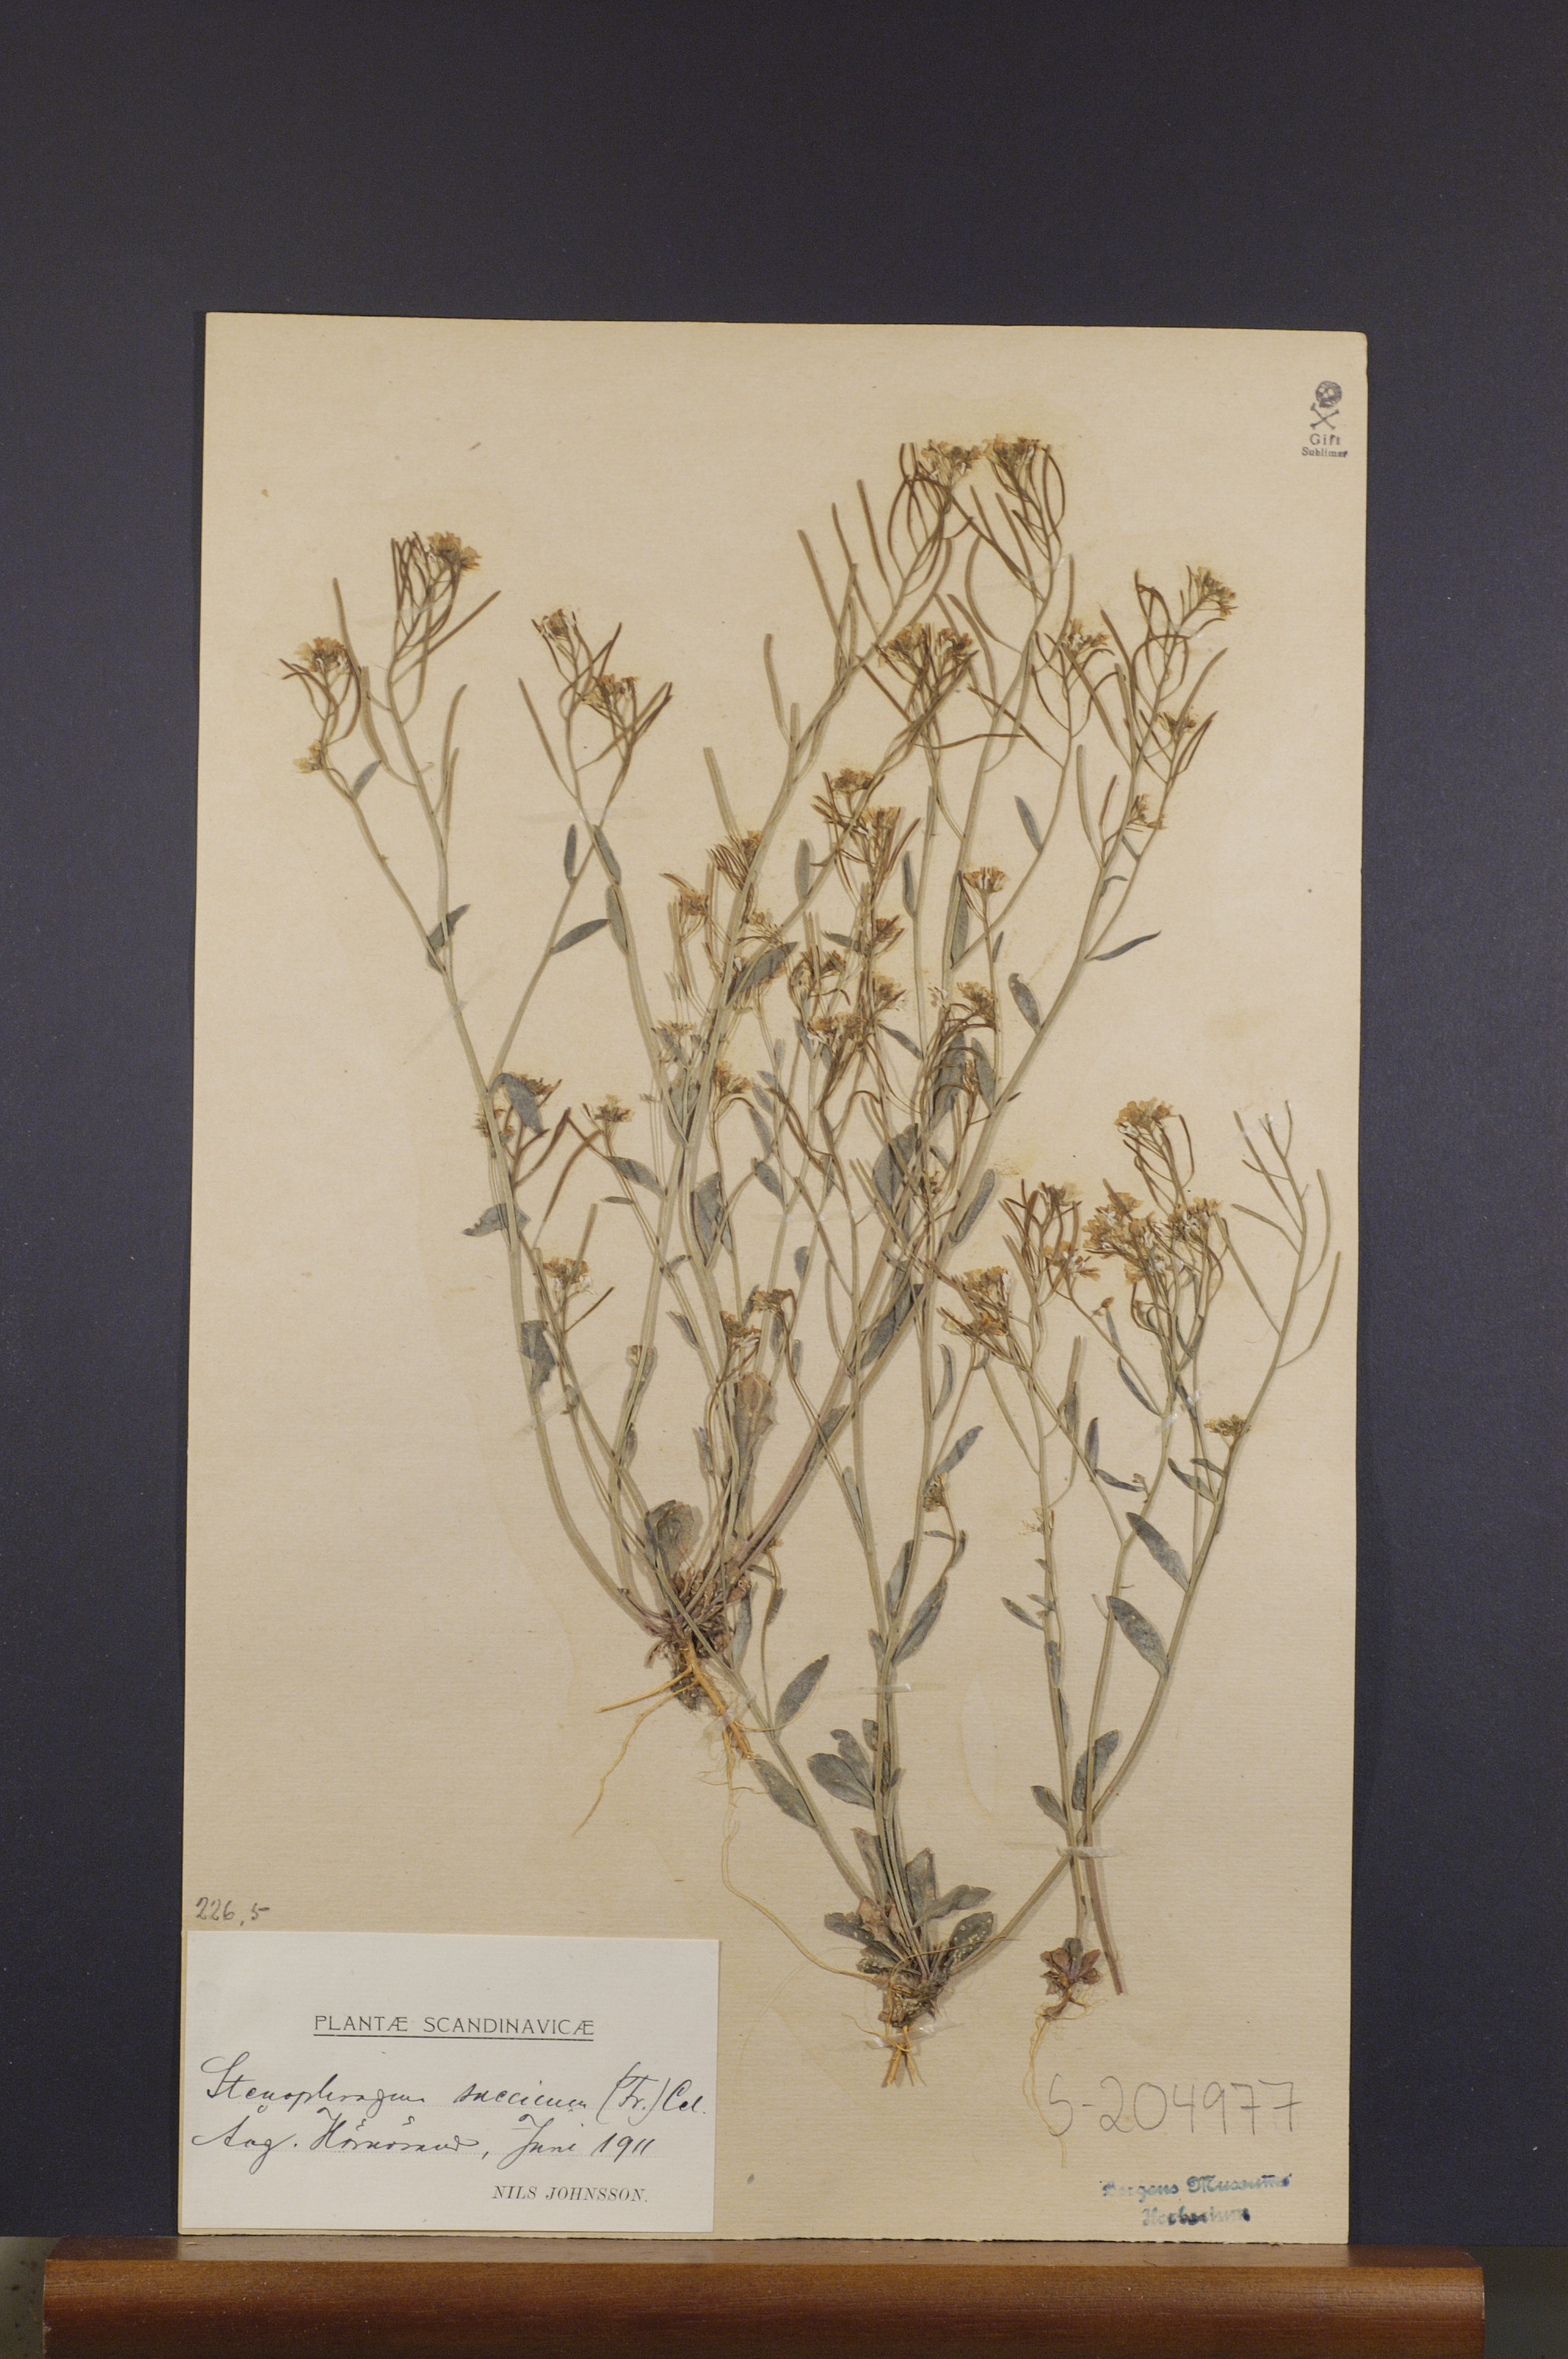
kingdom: Plantae
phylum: Tracheophyta
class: Magnoliopsida
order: Brassicales
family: Brassicaceae
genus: Arabidopsis
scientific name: Arabidopsis suecica
